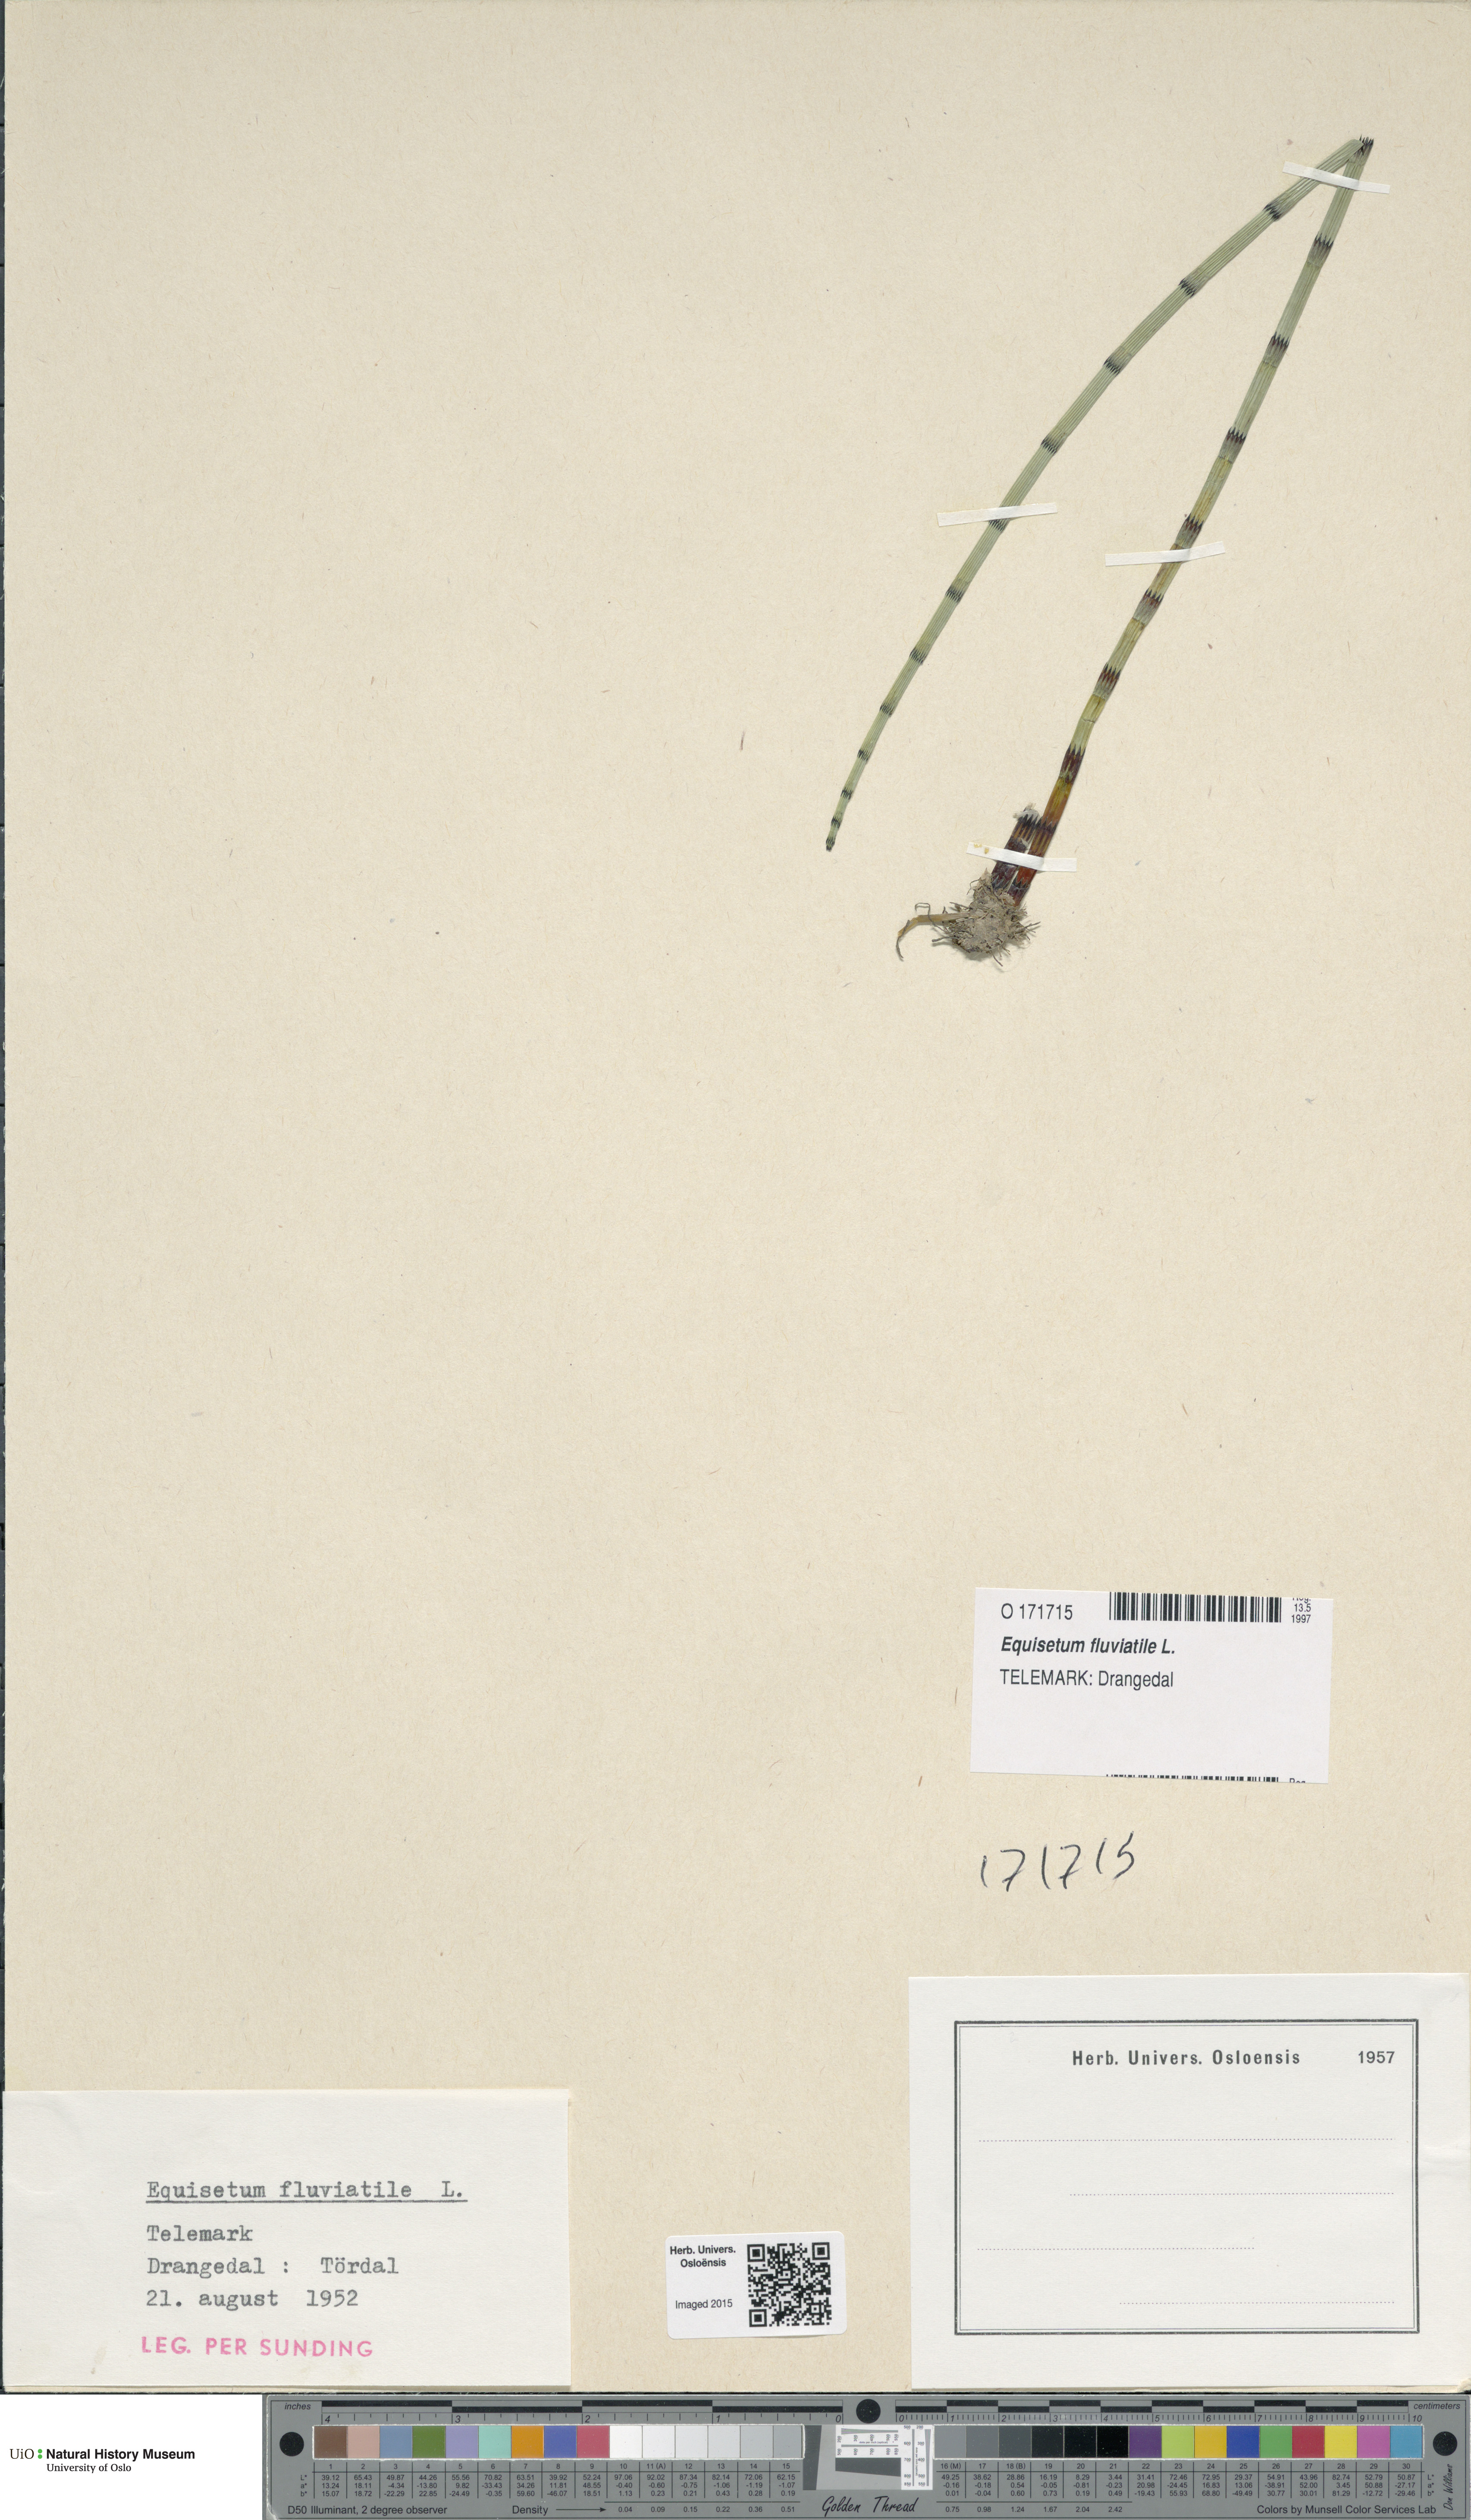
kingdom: Plantae
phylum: Tracheophyta
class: Polypodiopsida
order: Equisetales
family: Equisetaceae
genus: Equisetum
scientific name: Equisetum fluviatile
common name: Water horsetail
